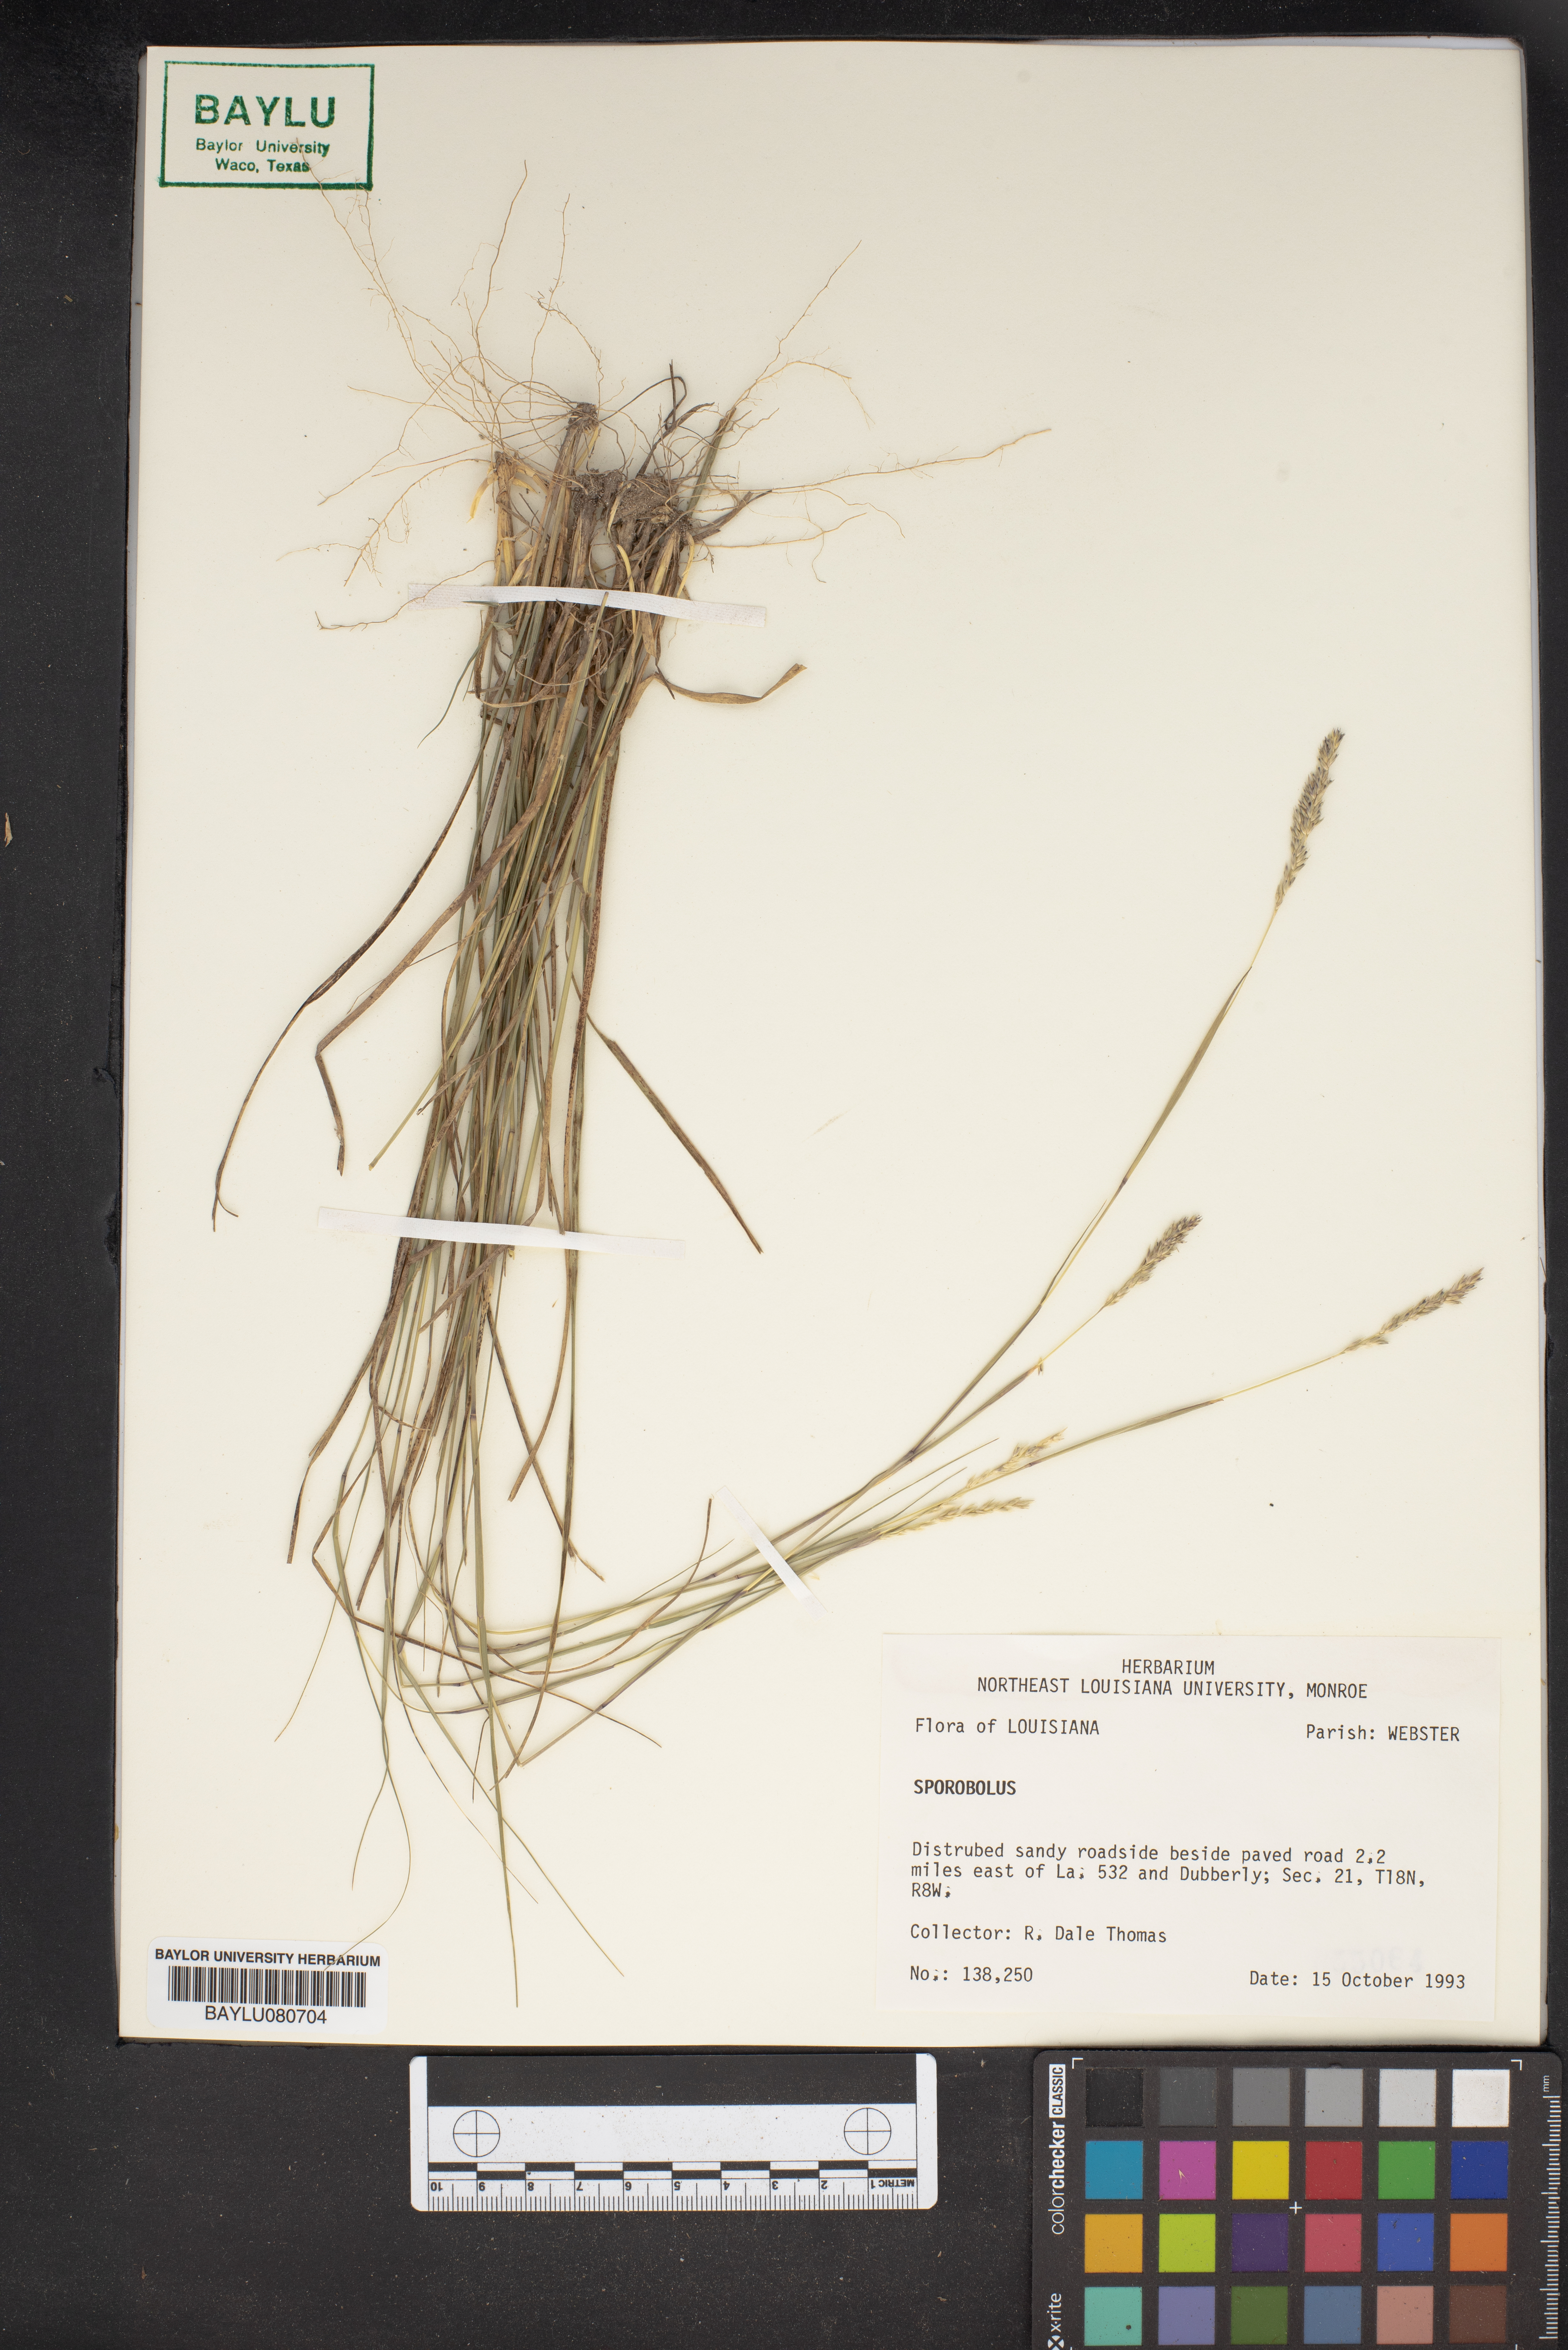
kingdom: Plantae
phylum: Tracheophyta
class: Liliopsida
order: Poales
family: Poaceae
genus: Sporobolus
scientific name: Sporobolus
